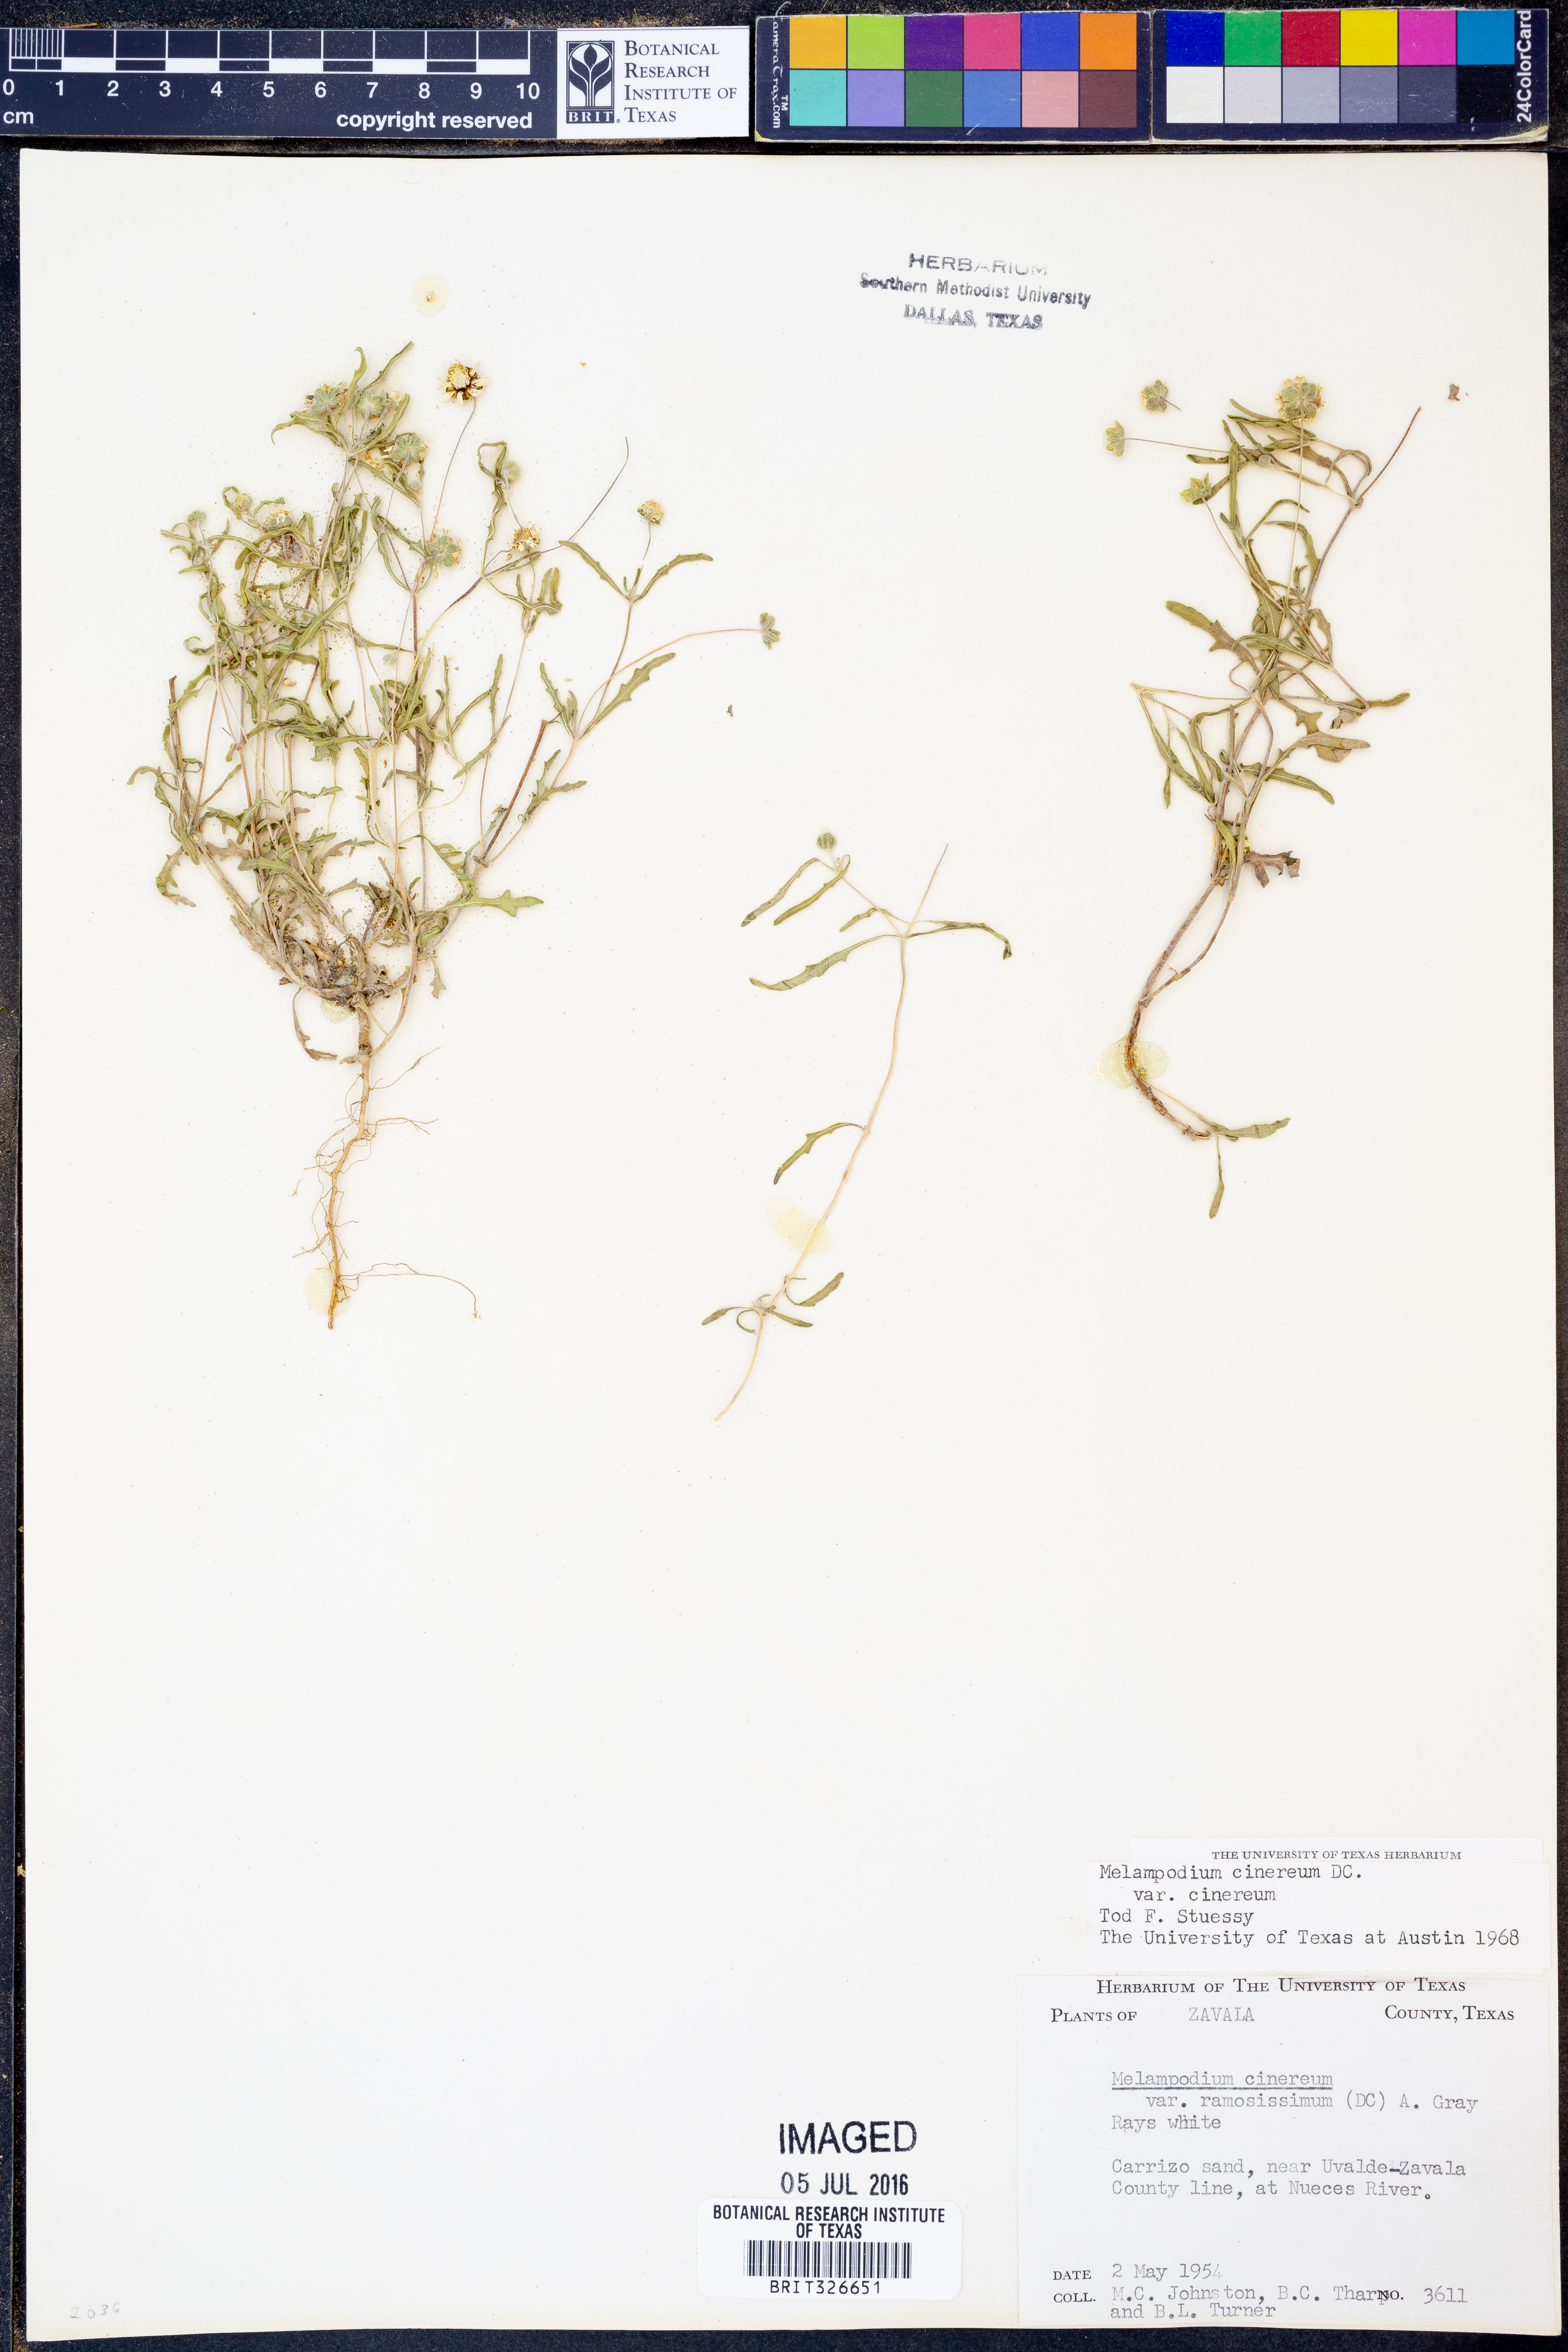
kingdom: Plantae
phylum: Tracheophyta
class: Magnoliopsida
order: Asterales
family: Asteraceae
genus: Melampodium
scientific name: Melampodium cinereum
